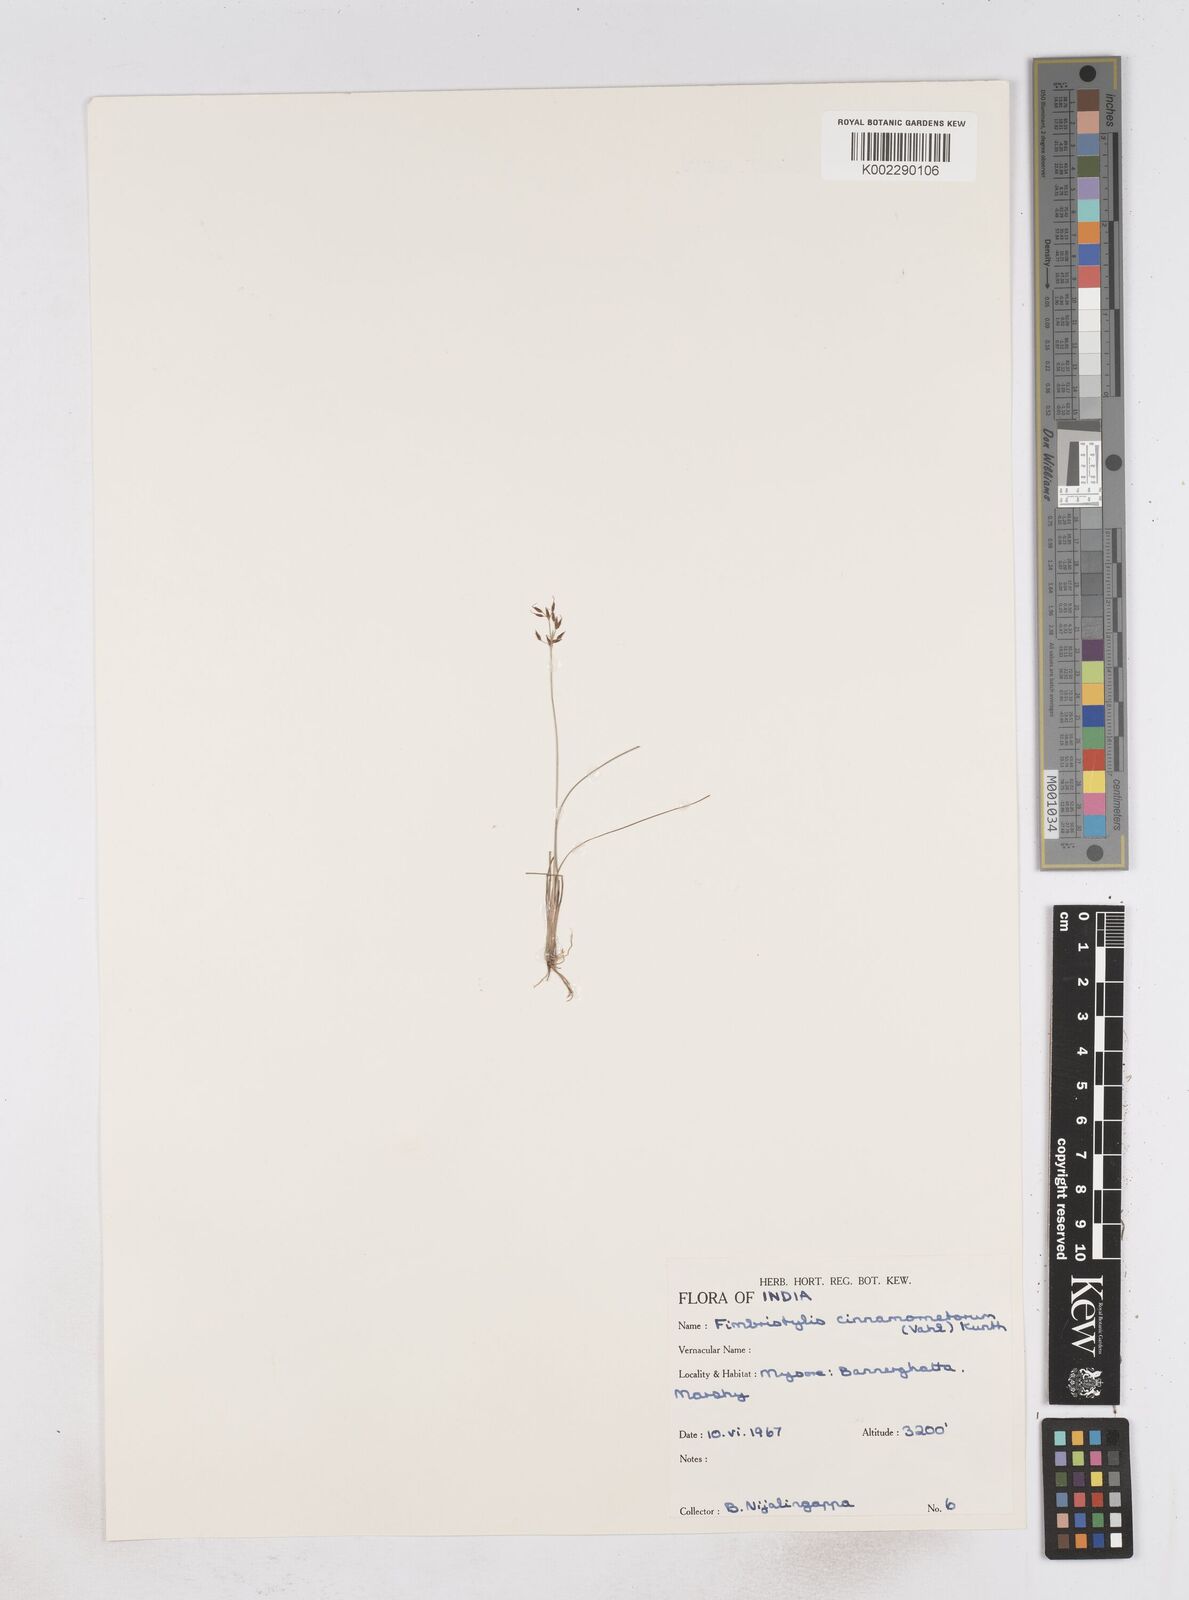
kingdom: Plantae
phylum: Tracheophyta
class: Liliopsida
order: Poales
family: Cyperaceae
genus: Fimbristylis
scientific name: Fimbristylis cinnamometorum
